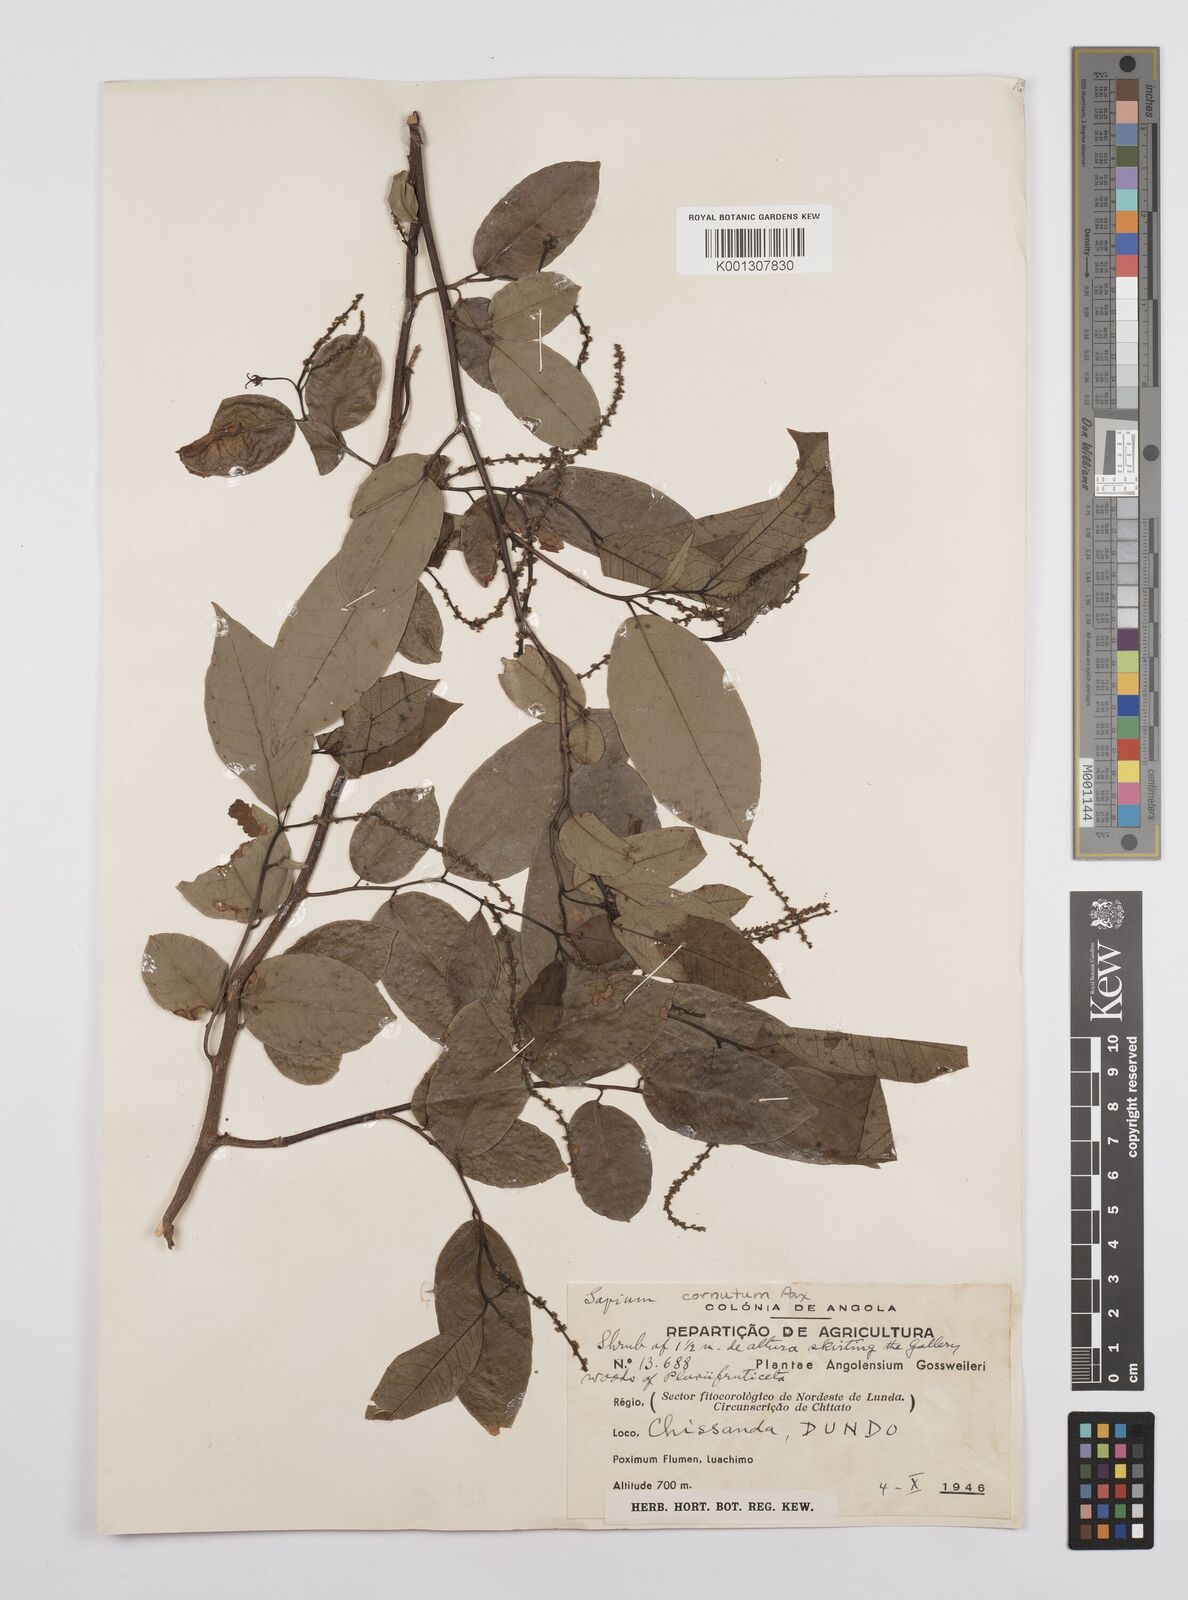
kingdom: Plantae
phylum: Tracheophyta
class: Magnoliopsida
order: Malpighiales
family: Euphorbiaceae
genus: Sclerocroton
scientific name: Sclerocroton cornutus
